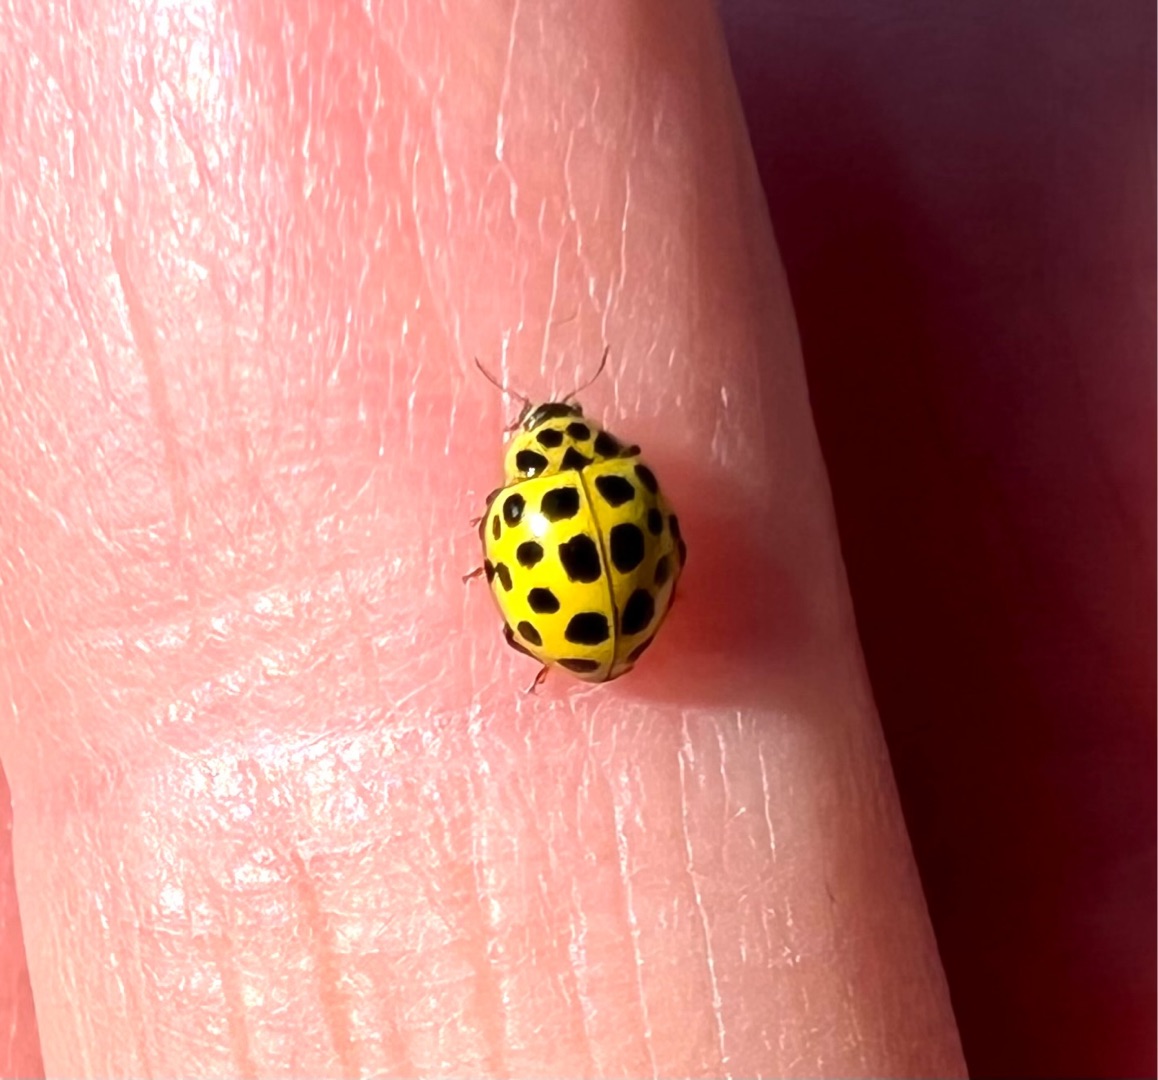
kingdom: Animalia
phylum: Arthropoda
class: Insecta
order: Coleoptera
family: Coccinellidae
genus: Psyllobora
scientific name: Psyllobora vigintiduopunctata
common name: Toogtyveplettet mariehøne
